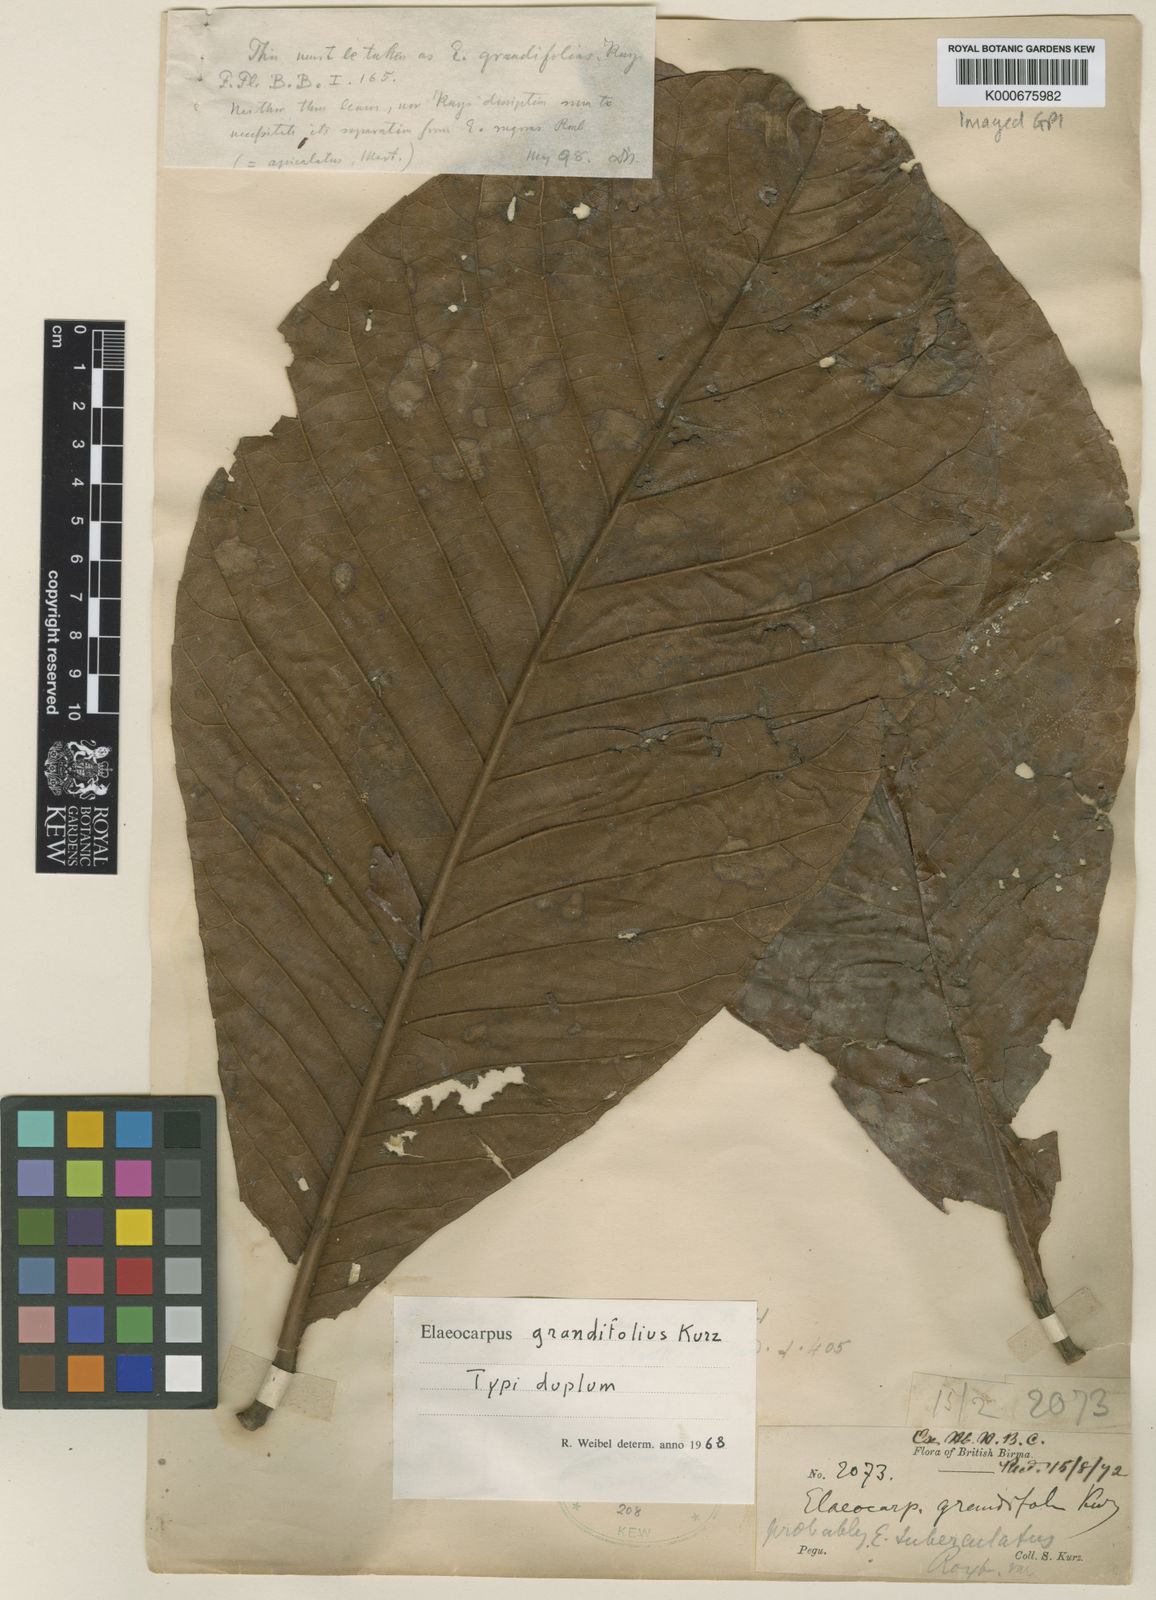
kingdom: Plantae
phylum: Tracheophyta
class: Magnoliopsida
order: Oxalidales
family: Elaeocarpaceae
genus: Elaeocarpus
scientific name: Elaeocarpus grandifolius
